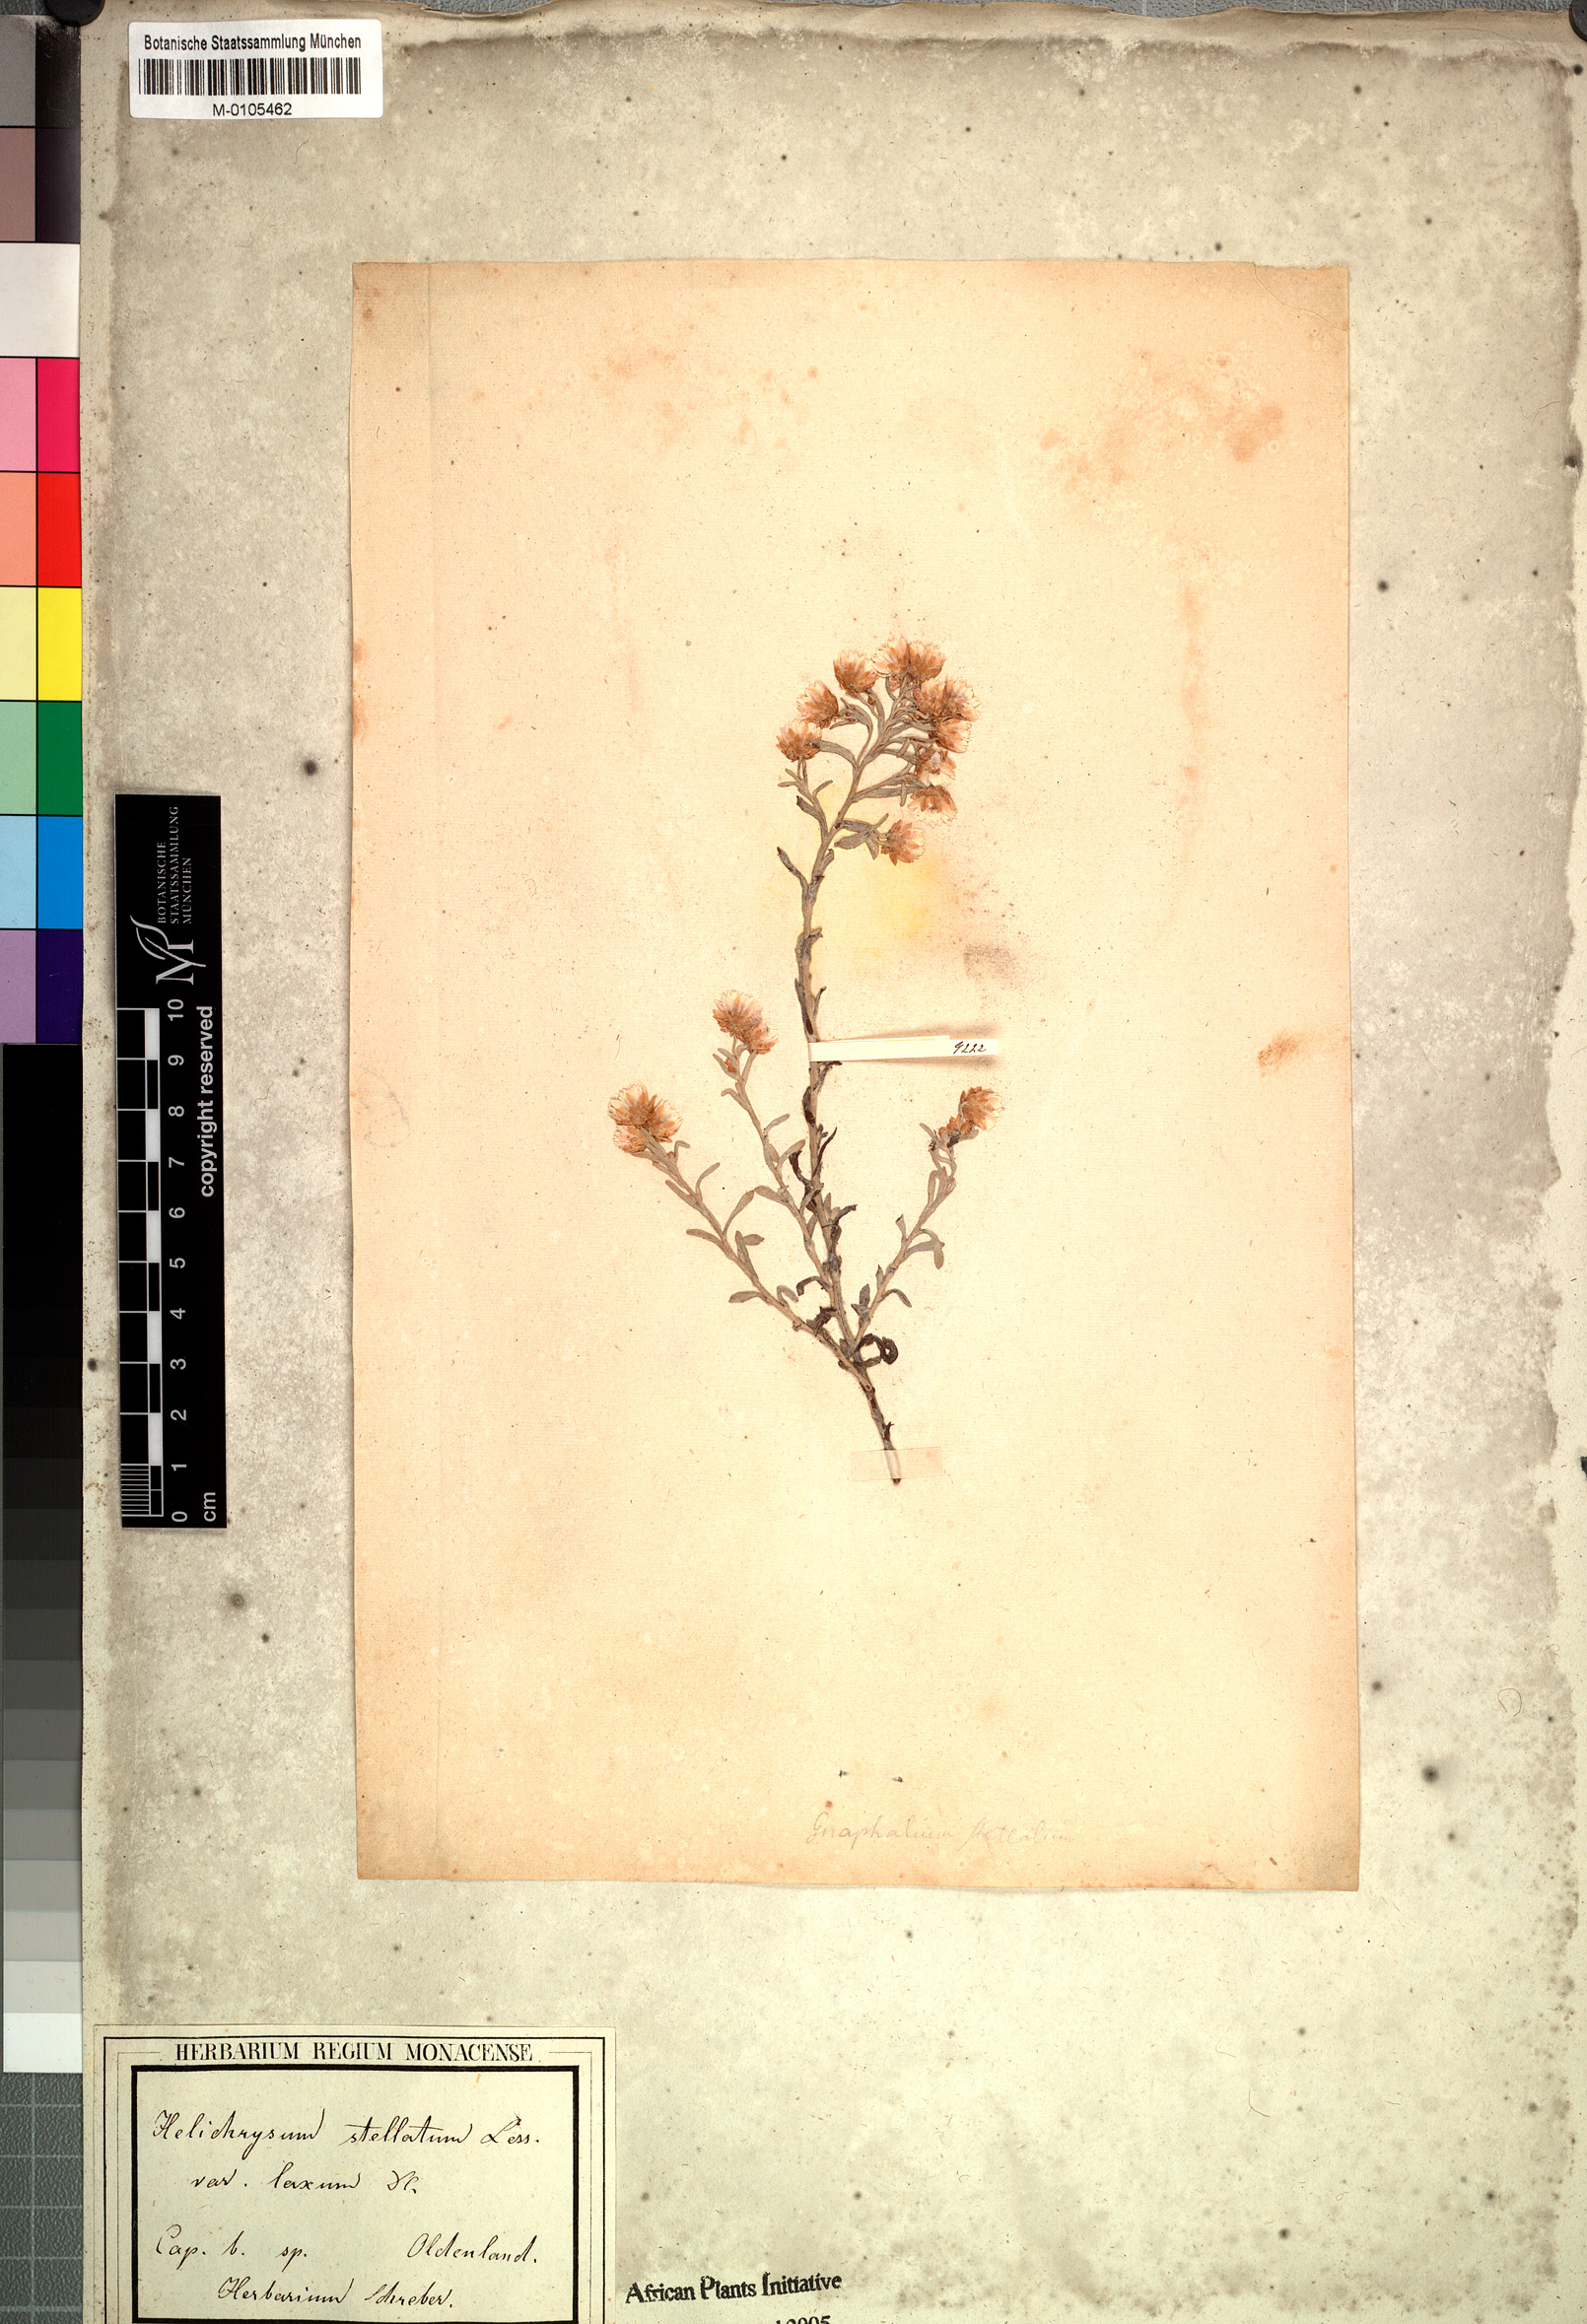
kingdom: Plantae
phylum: Tracheophyta
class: Magnoliopsida
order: Asterales
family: Asteraceae
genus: Helichrysum
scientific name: Helichrysum spiralepis
